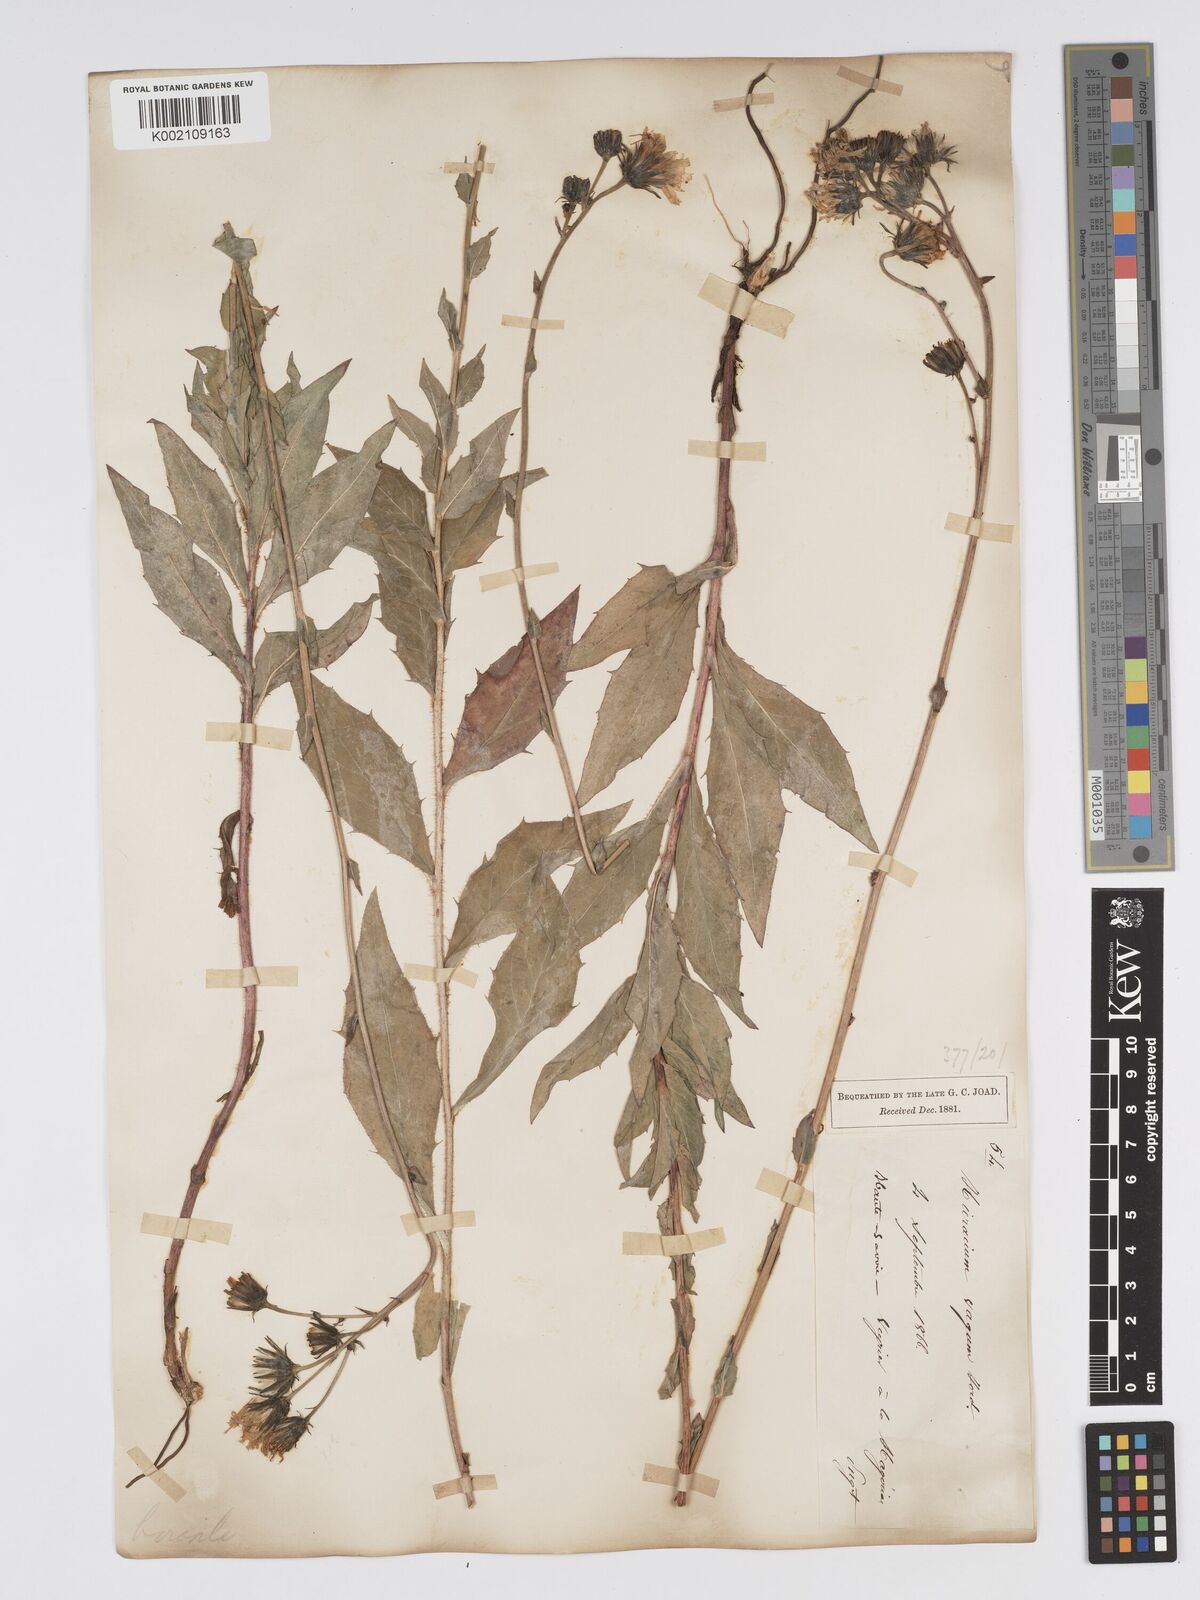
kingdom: Plantae
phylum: Tracheophyta
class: Magnoliopsida
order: Asterales
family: Asteraceae
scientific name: Asteraceae
